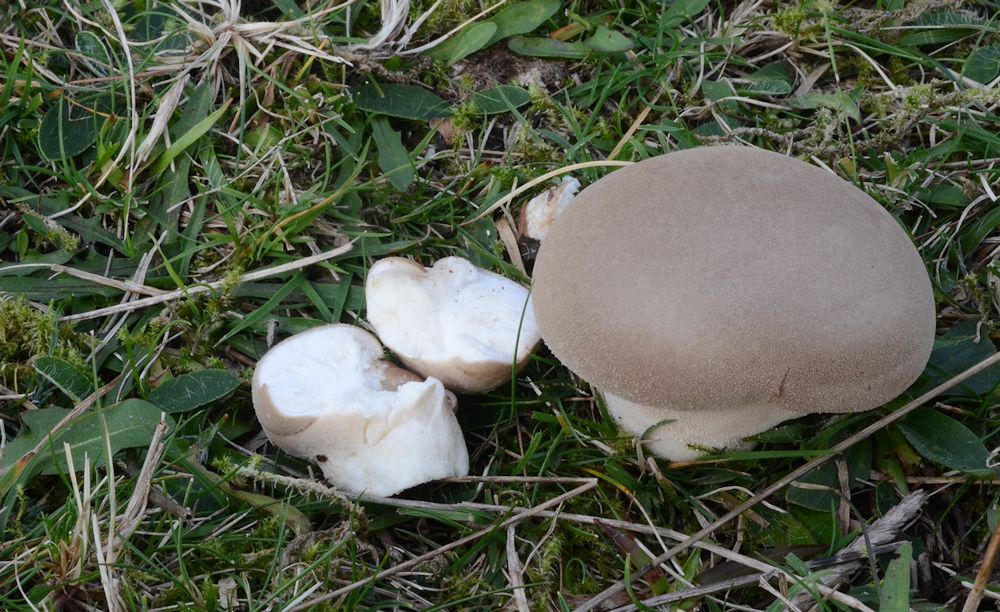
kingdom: Fungi
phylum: Basidiomycota
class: Agaricomycetes
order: Agaricales
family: Lycoperdaceae
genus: Lycoperdon
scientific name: Lycoperdon pratense
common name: flad støvbold
